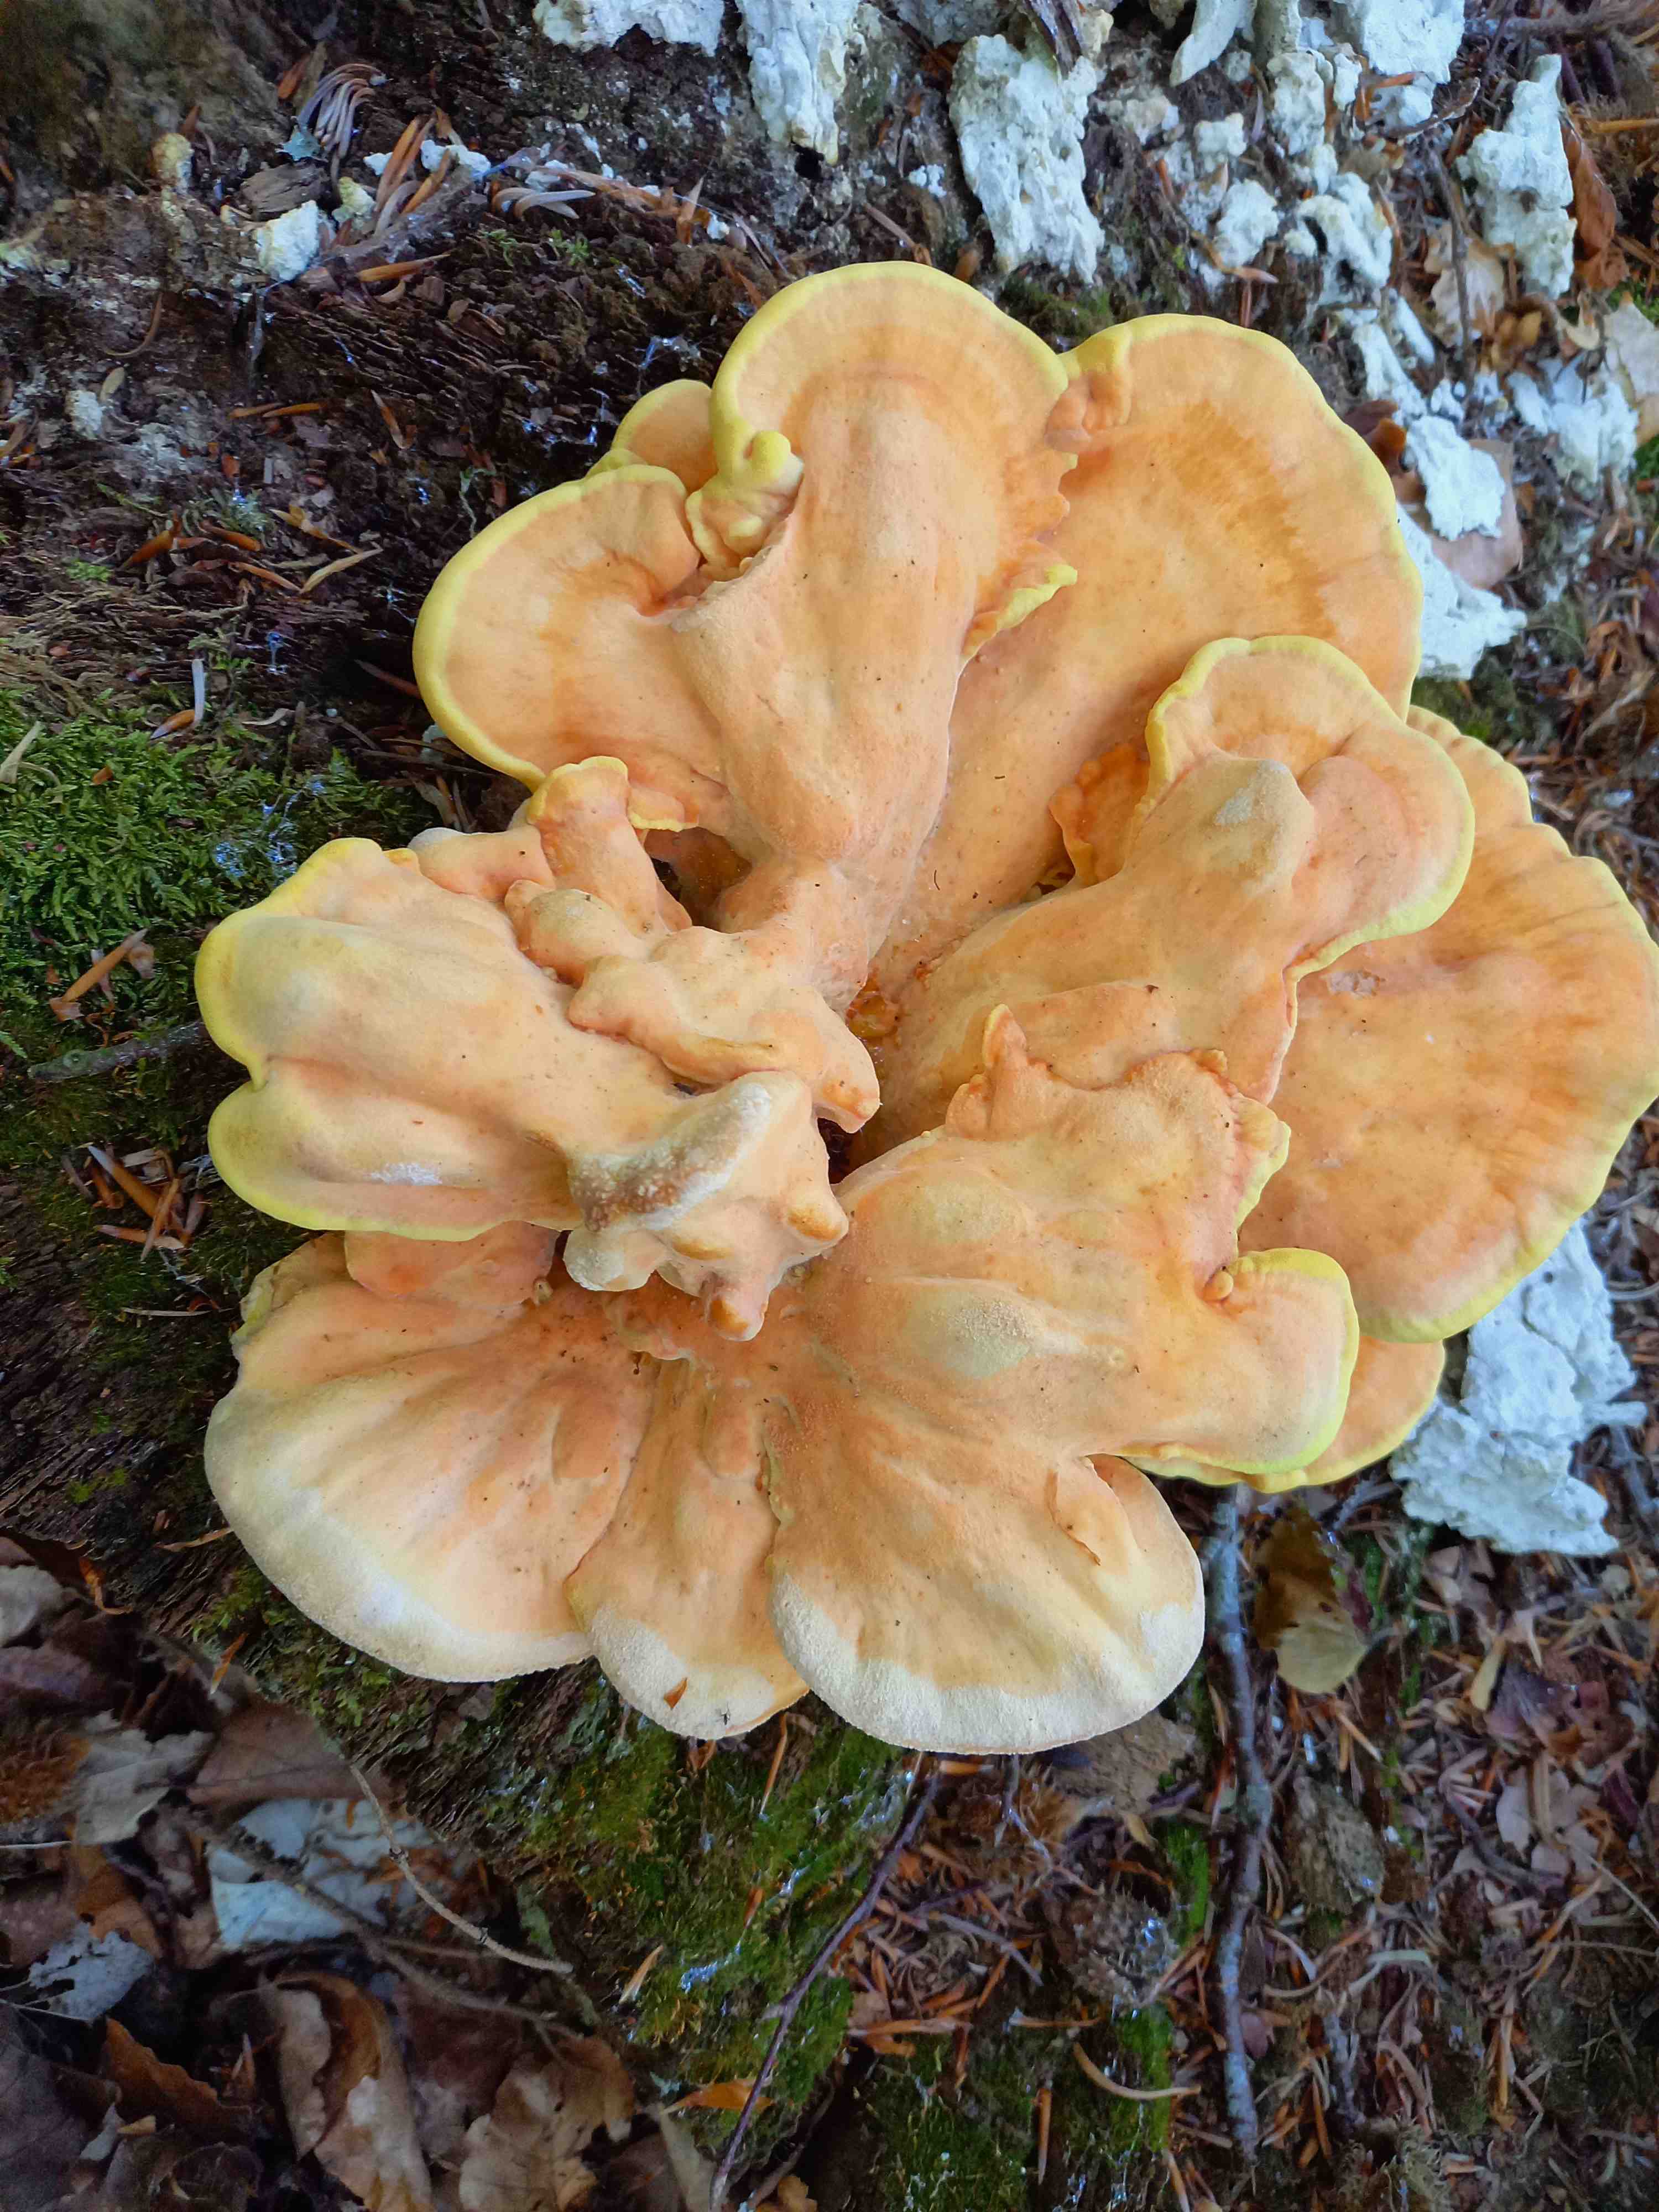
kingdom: Fungi
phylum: Basidiomycota
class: Agaricomycetes
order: Polyporales
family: Laetiporaceae
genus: Laetiporus
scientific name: Laetiporus sulphureus
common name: svovlporesvamp
